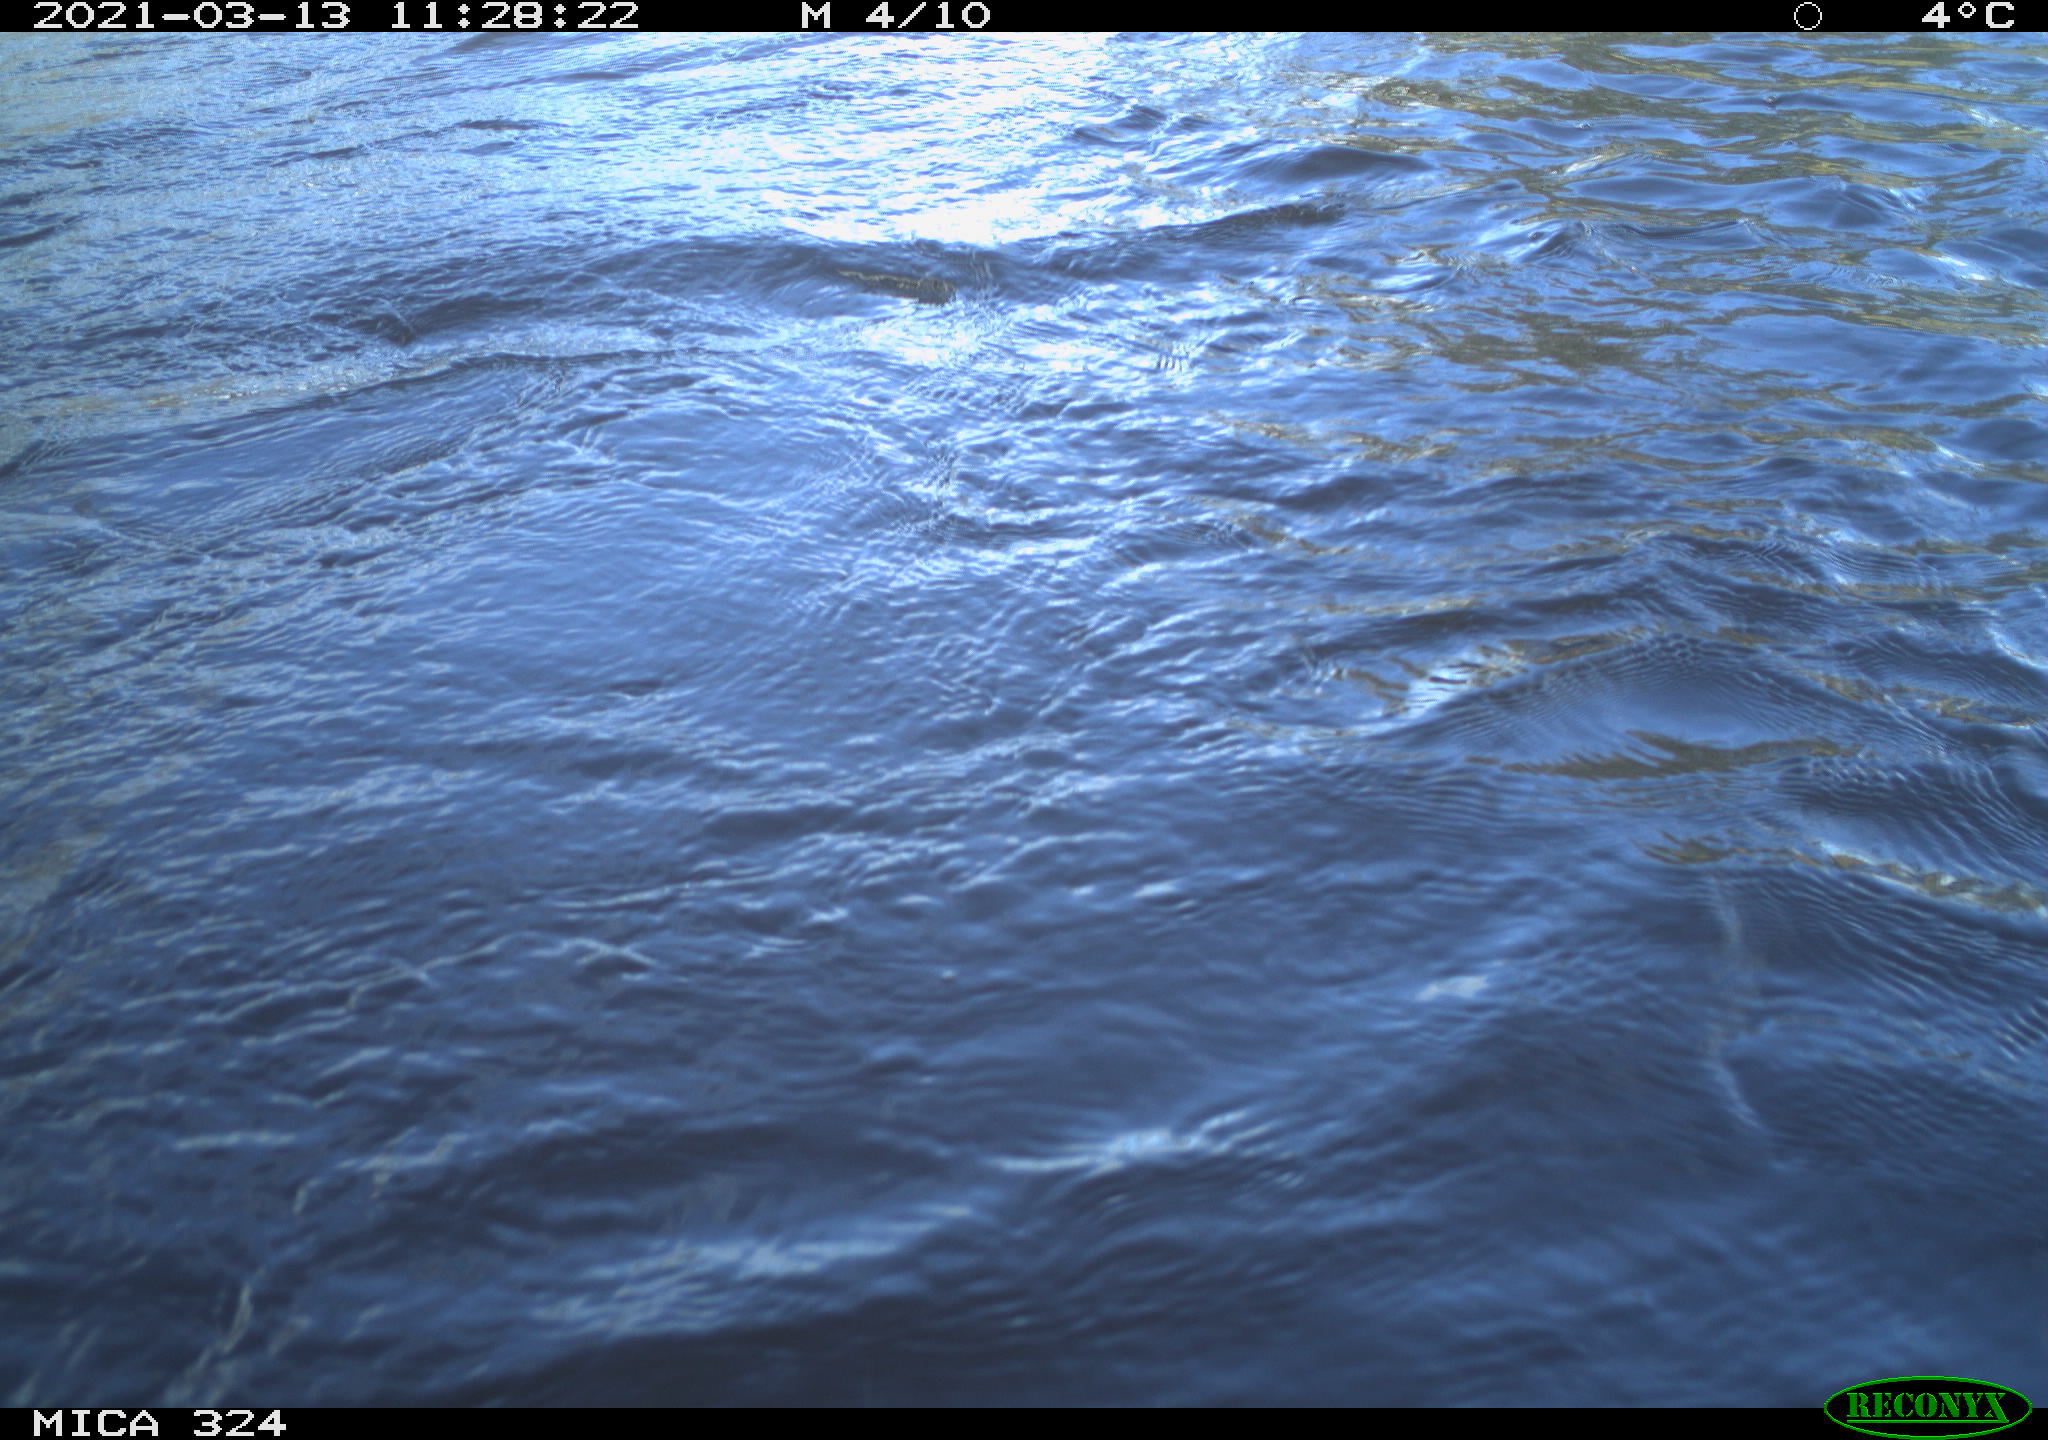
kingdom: Animalia
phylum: Chordata
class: Aves
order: Anseriformes
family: Anatidae
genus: Anas
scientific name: Anas platyrhynchos
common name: Mallard
